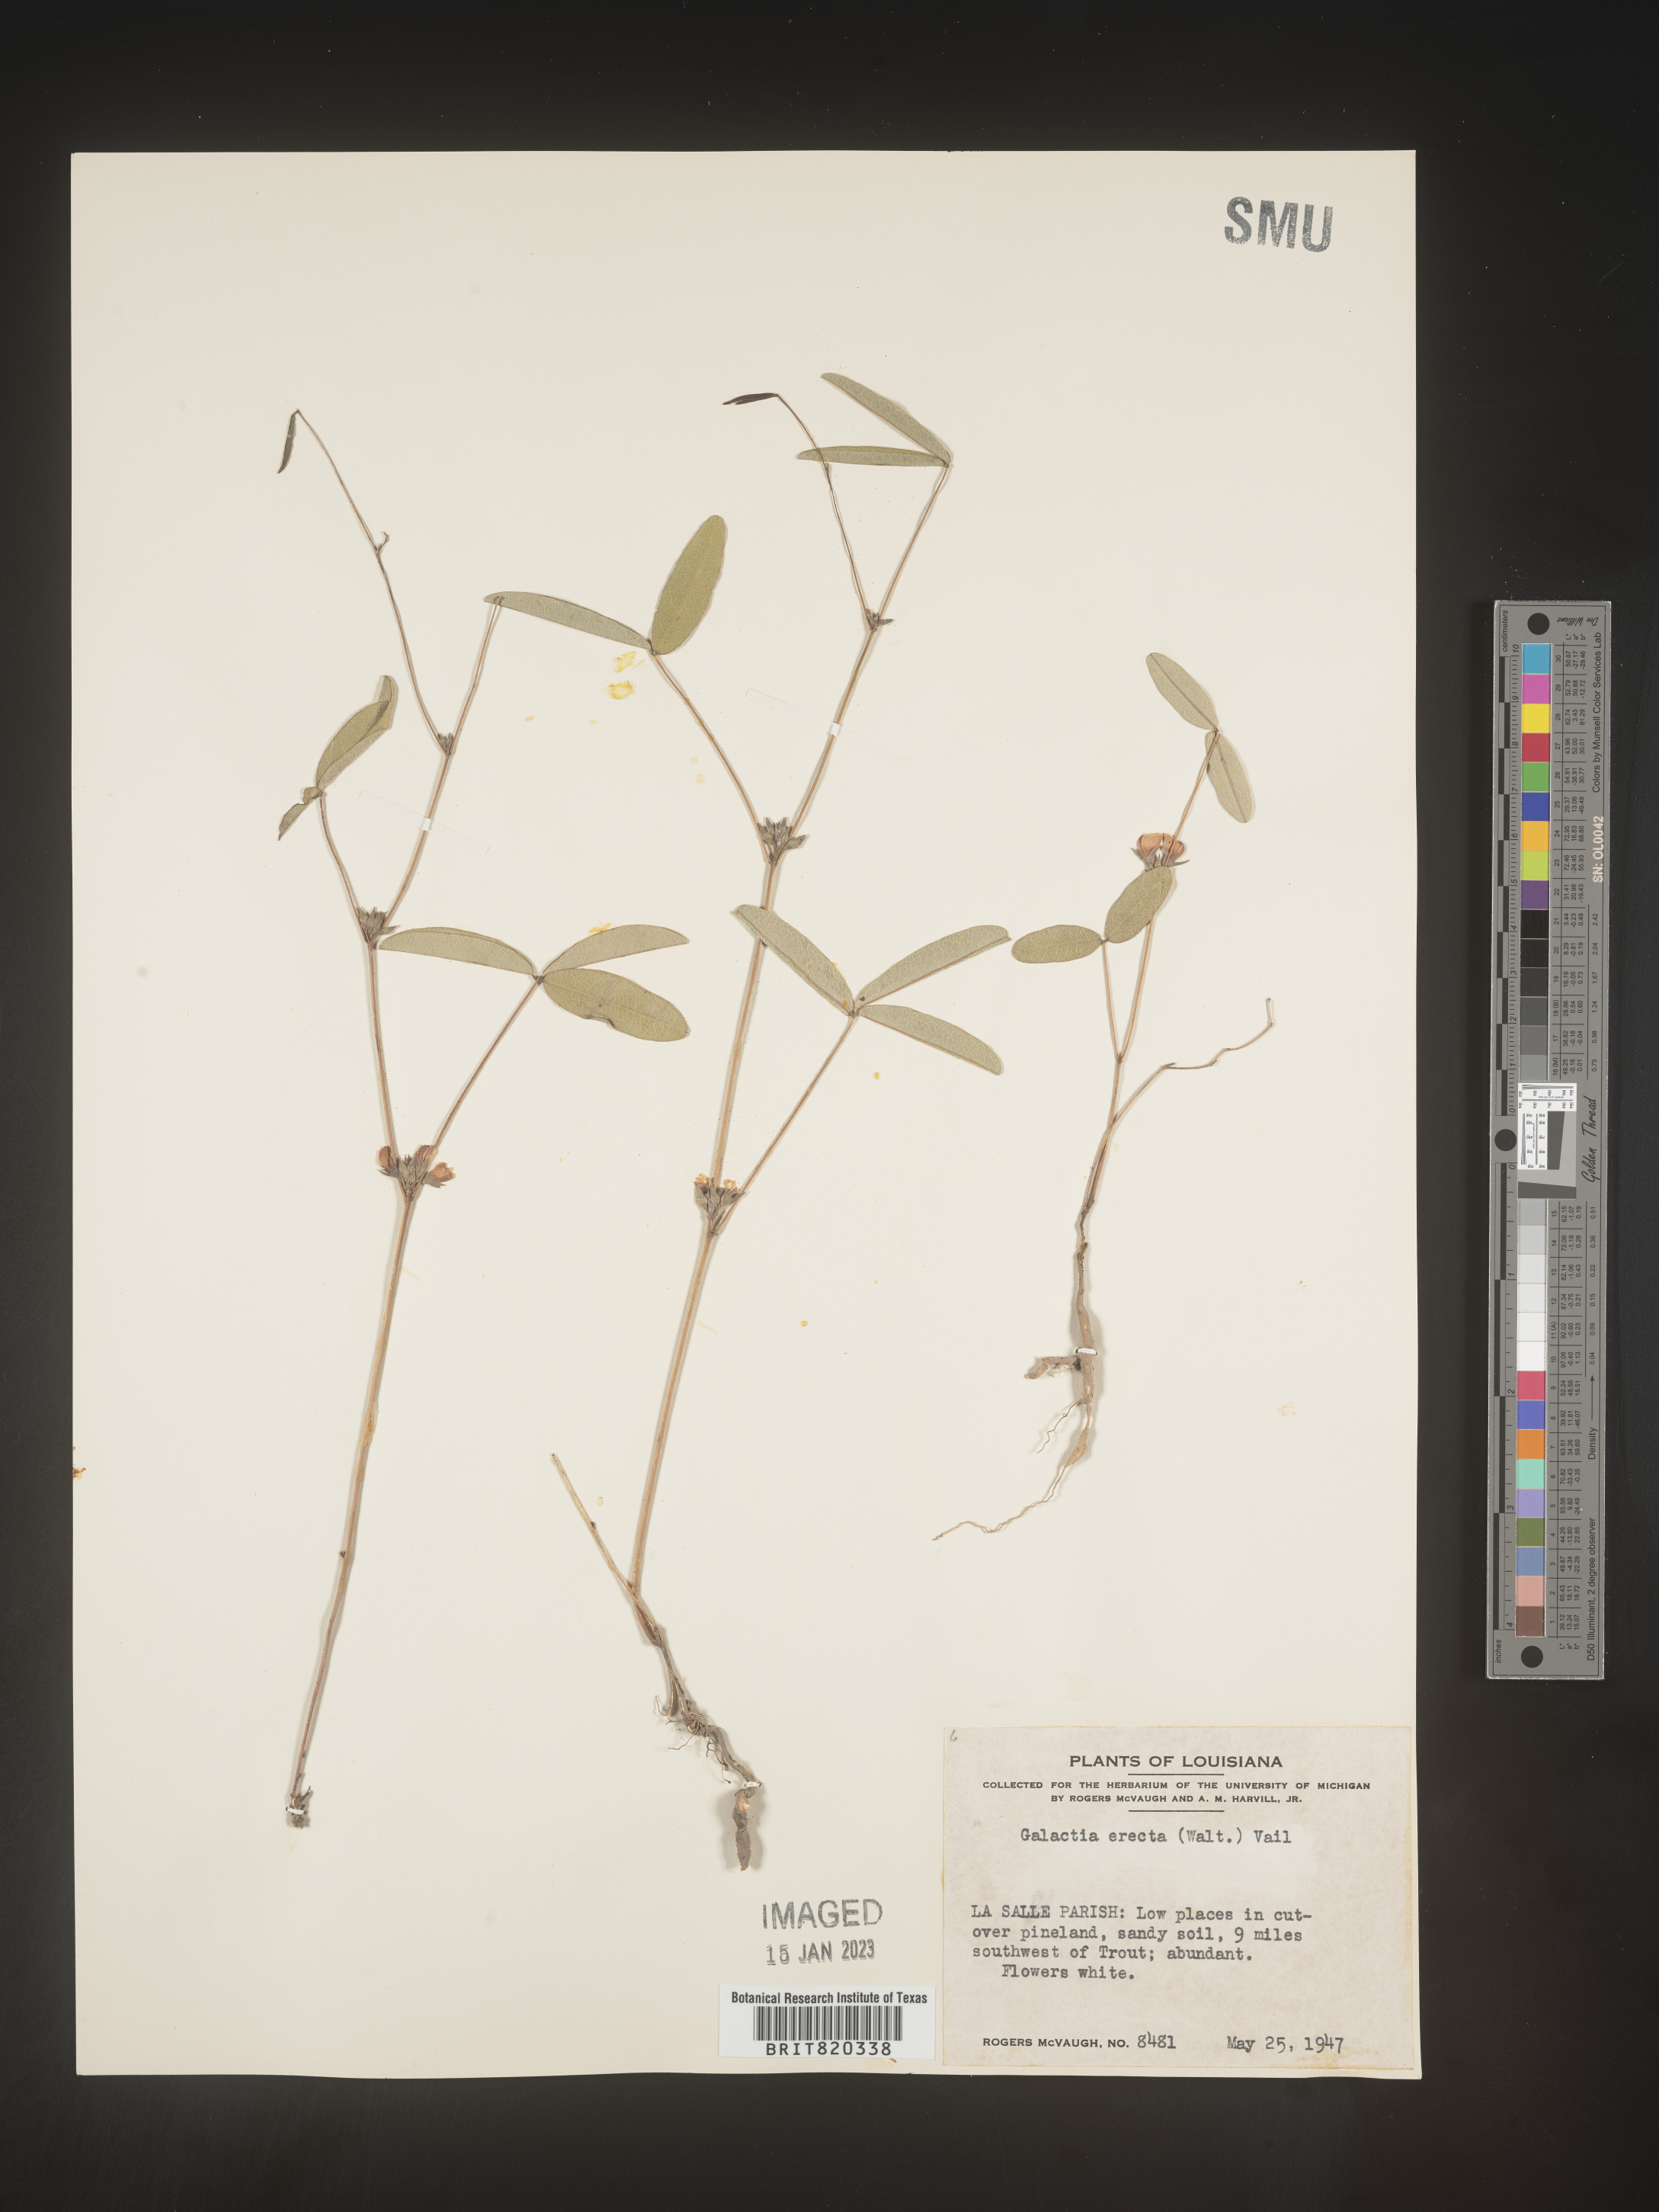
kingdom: Plantae
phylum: Tracheophyta
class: Magnoliopsida
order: Fabales
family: Fabaceae
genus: Galactia
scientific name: Galactia erecta
